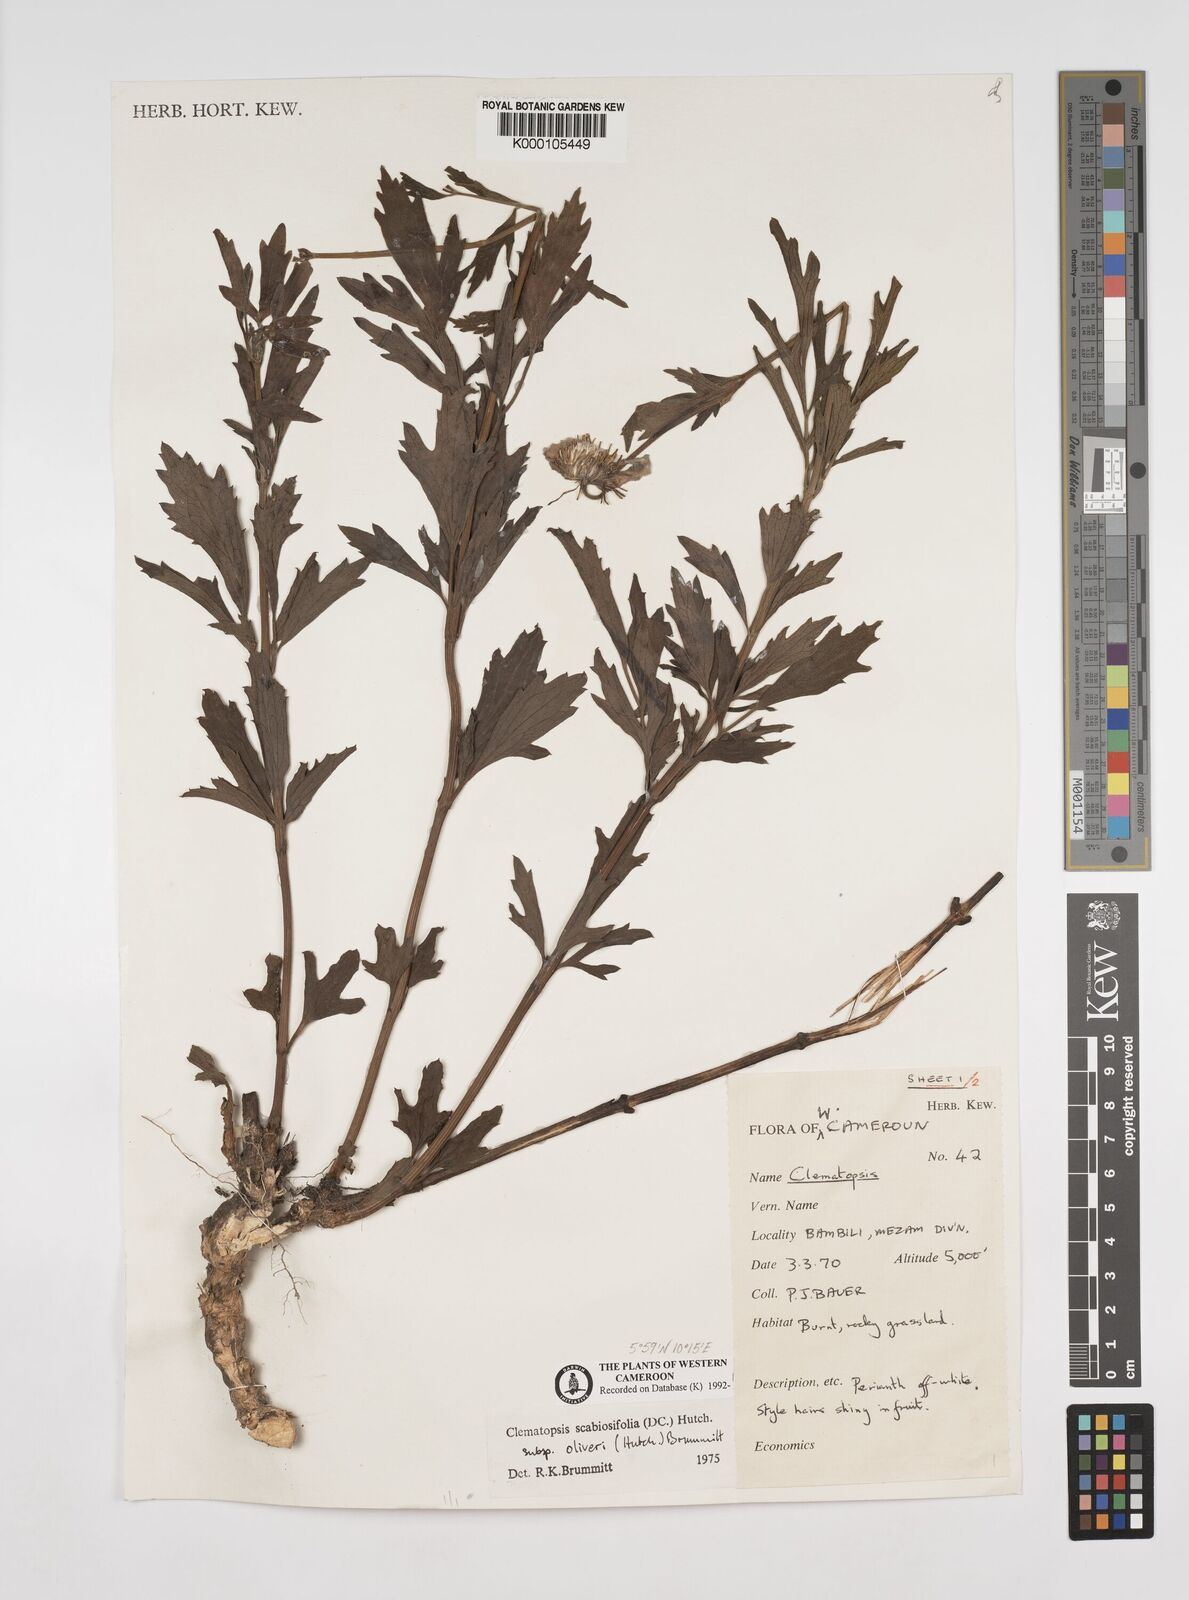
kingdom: Plantae
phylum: Tracheophyta
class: Magnoliopsida
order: Ranunculales
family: Ranunculaceae
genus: Clematis
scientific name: Clematis villosa
